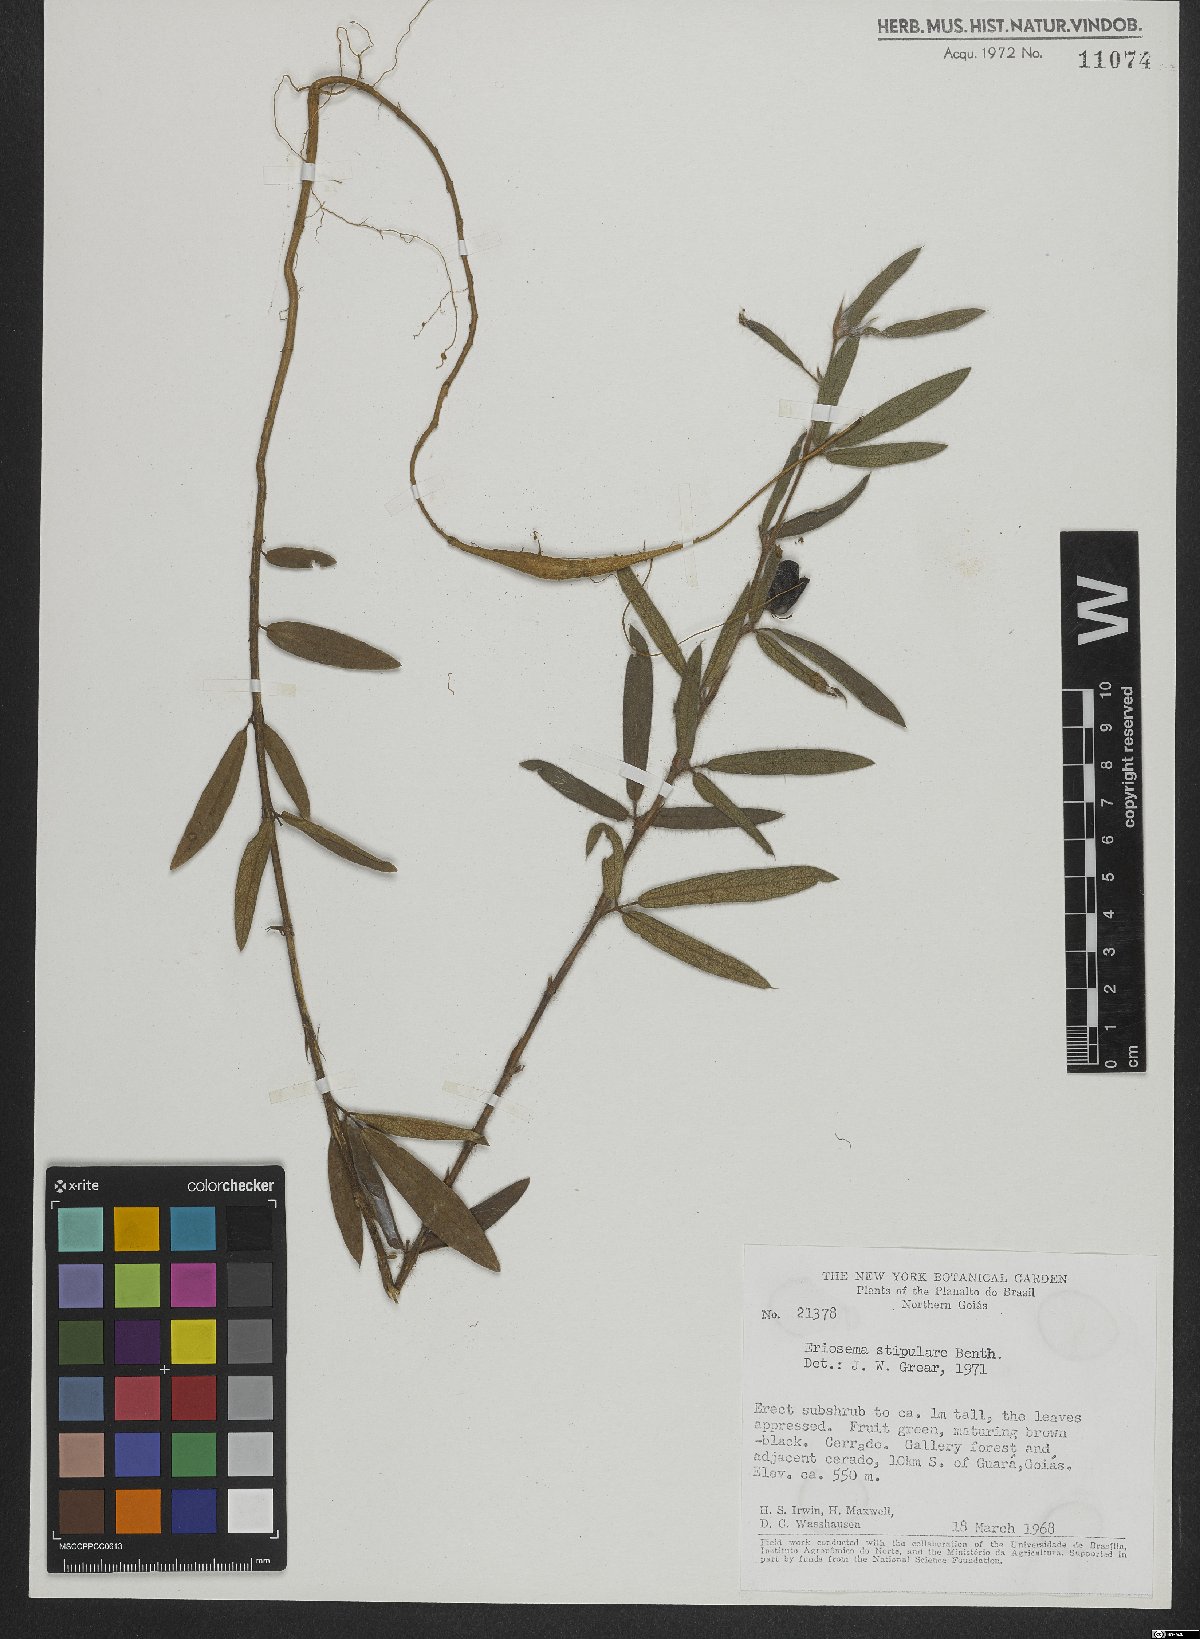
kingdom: Plantae
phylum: Tracheophyta
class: Magnoliopsida
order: Fabales
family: Fabaceae
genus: Eriosema
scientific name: Eriosema crinitum
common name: Sand pea
